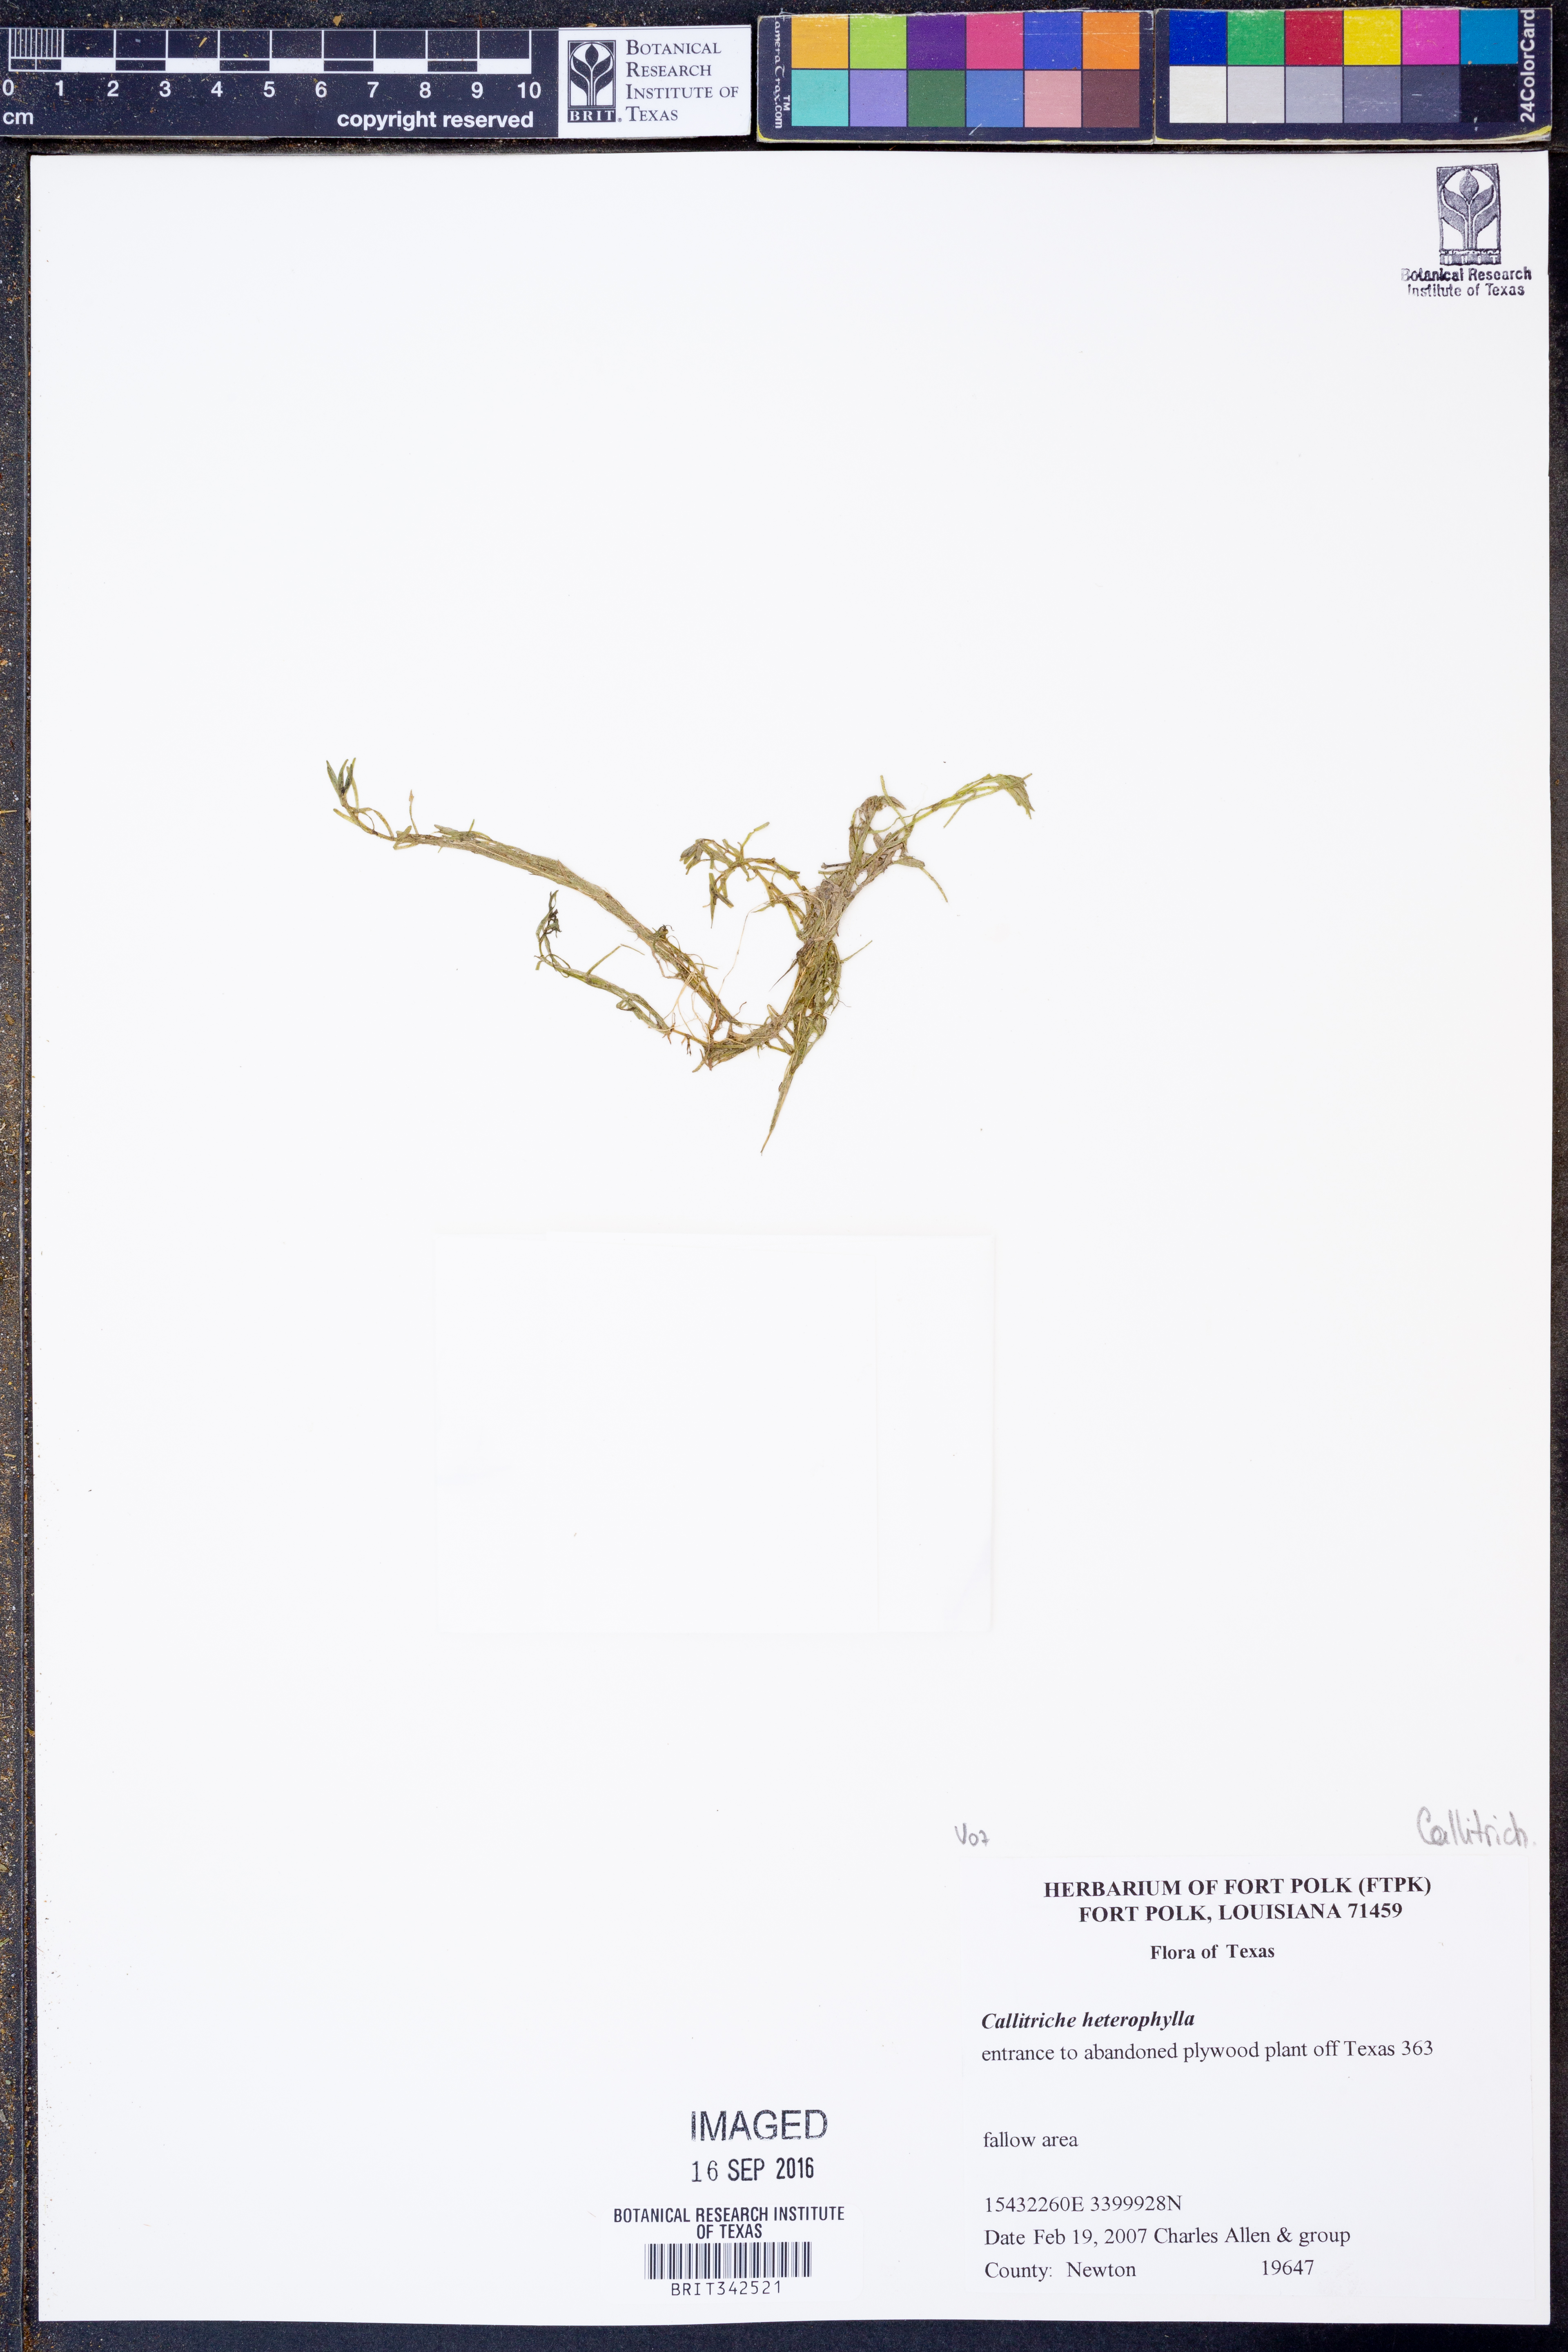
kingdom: Plantae
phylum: Tracheophyta
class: Magnoliopsida
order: Lamiales
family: Plantaginaceae
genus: Callitriche
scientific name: Callitriche heterophylla
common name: Two-headed water-starwort
